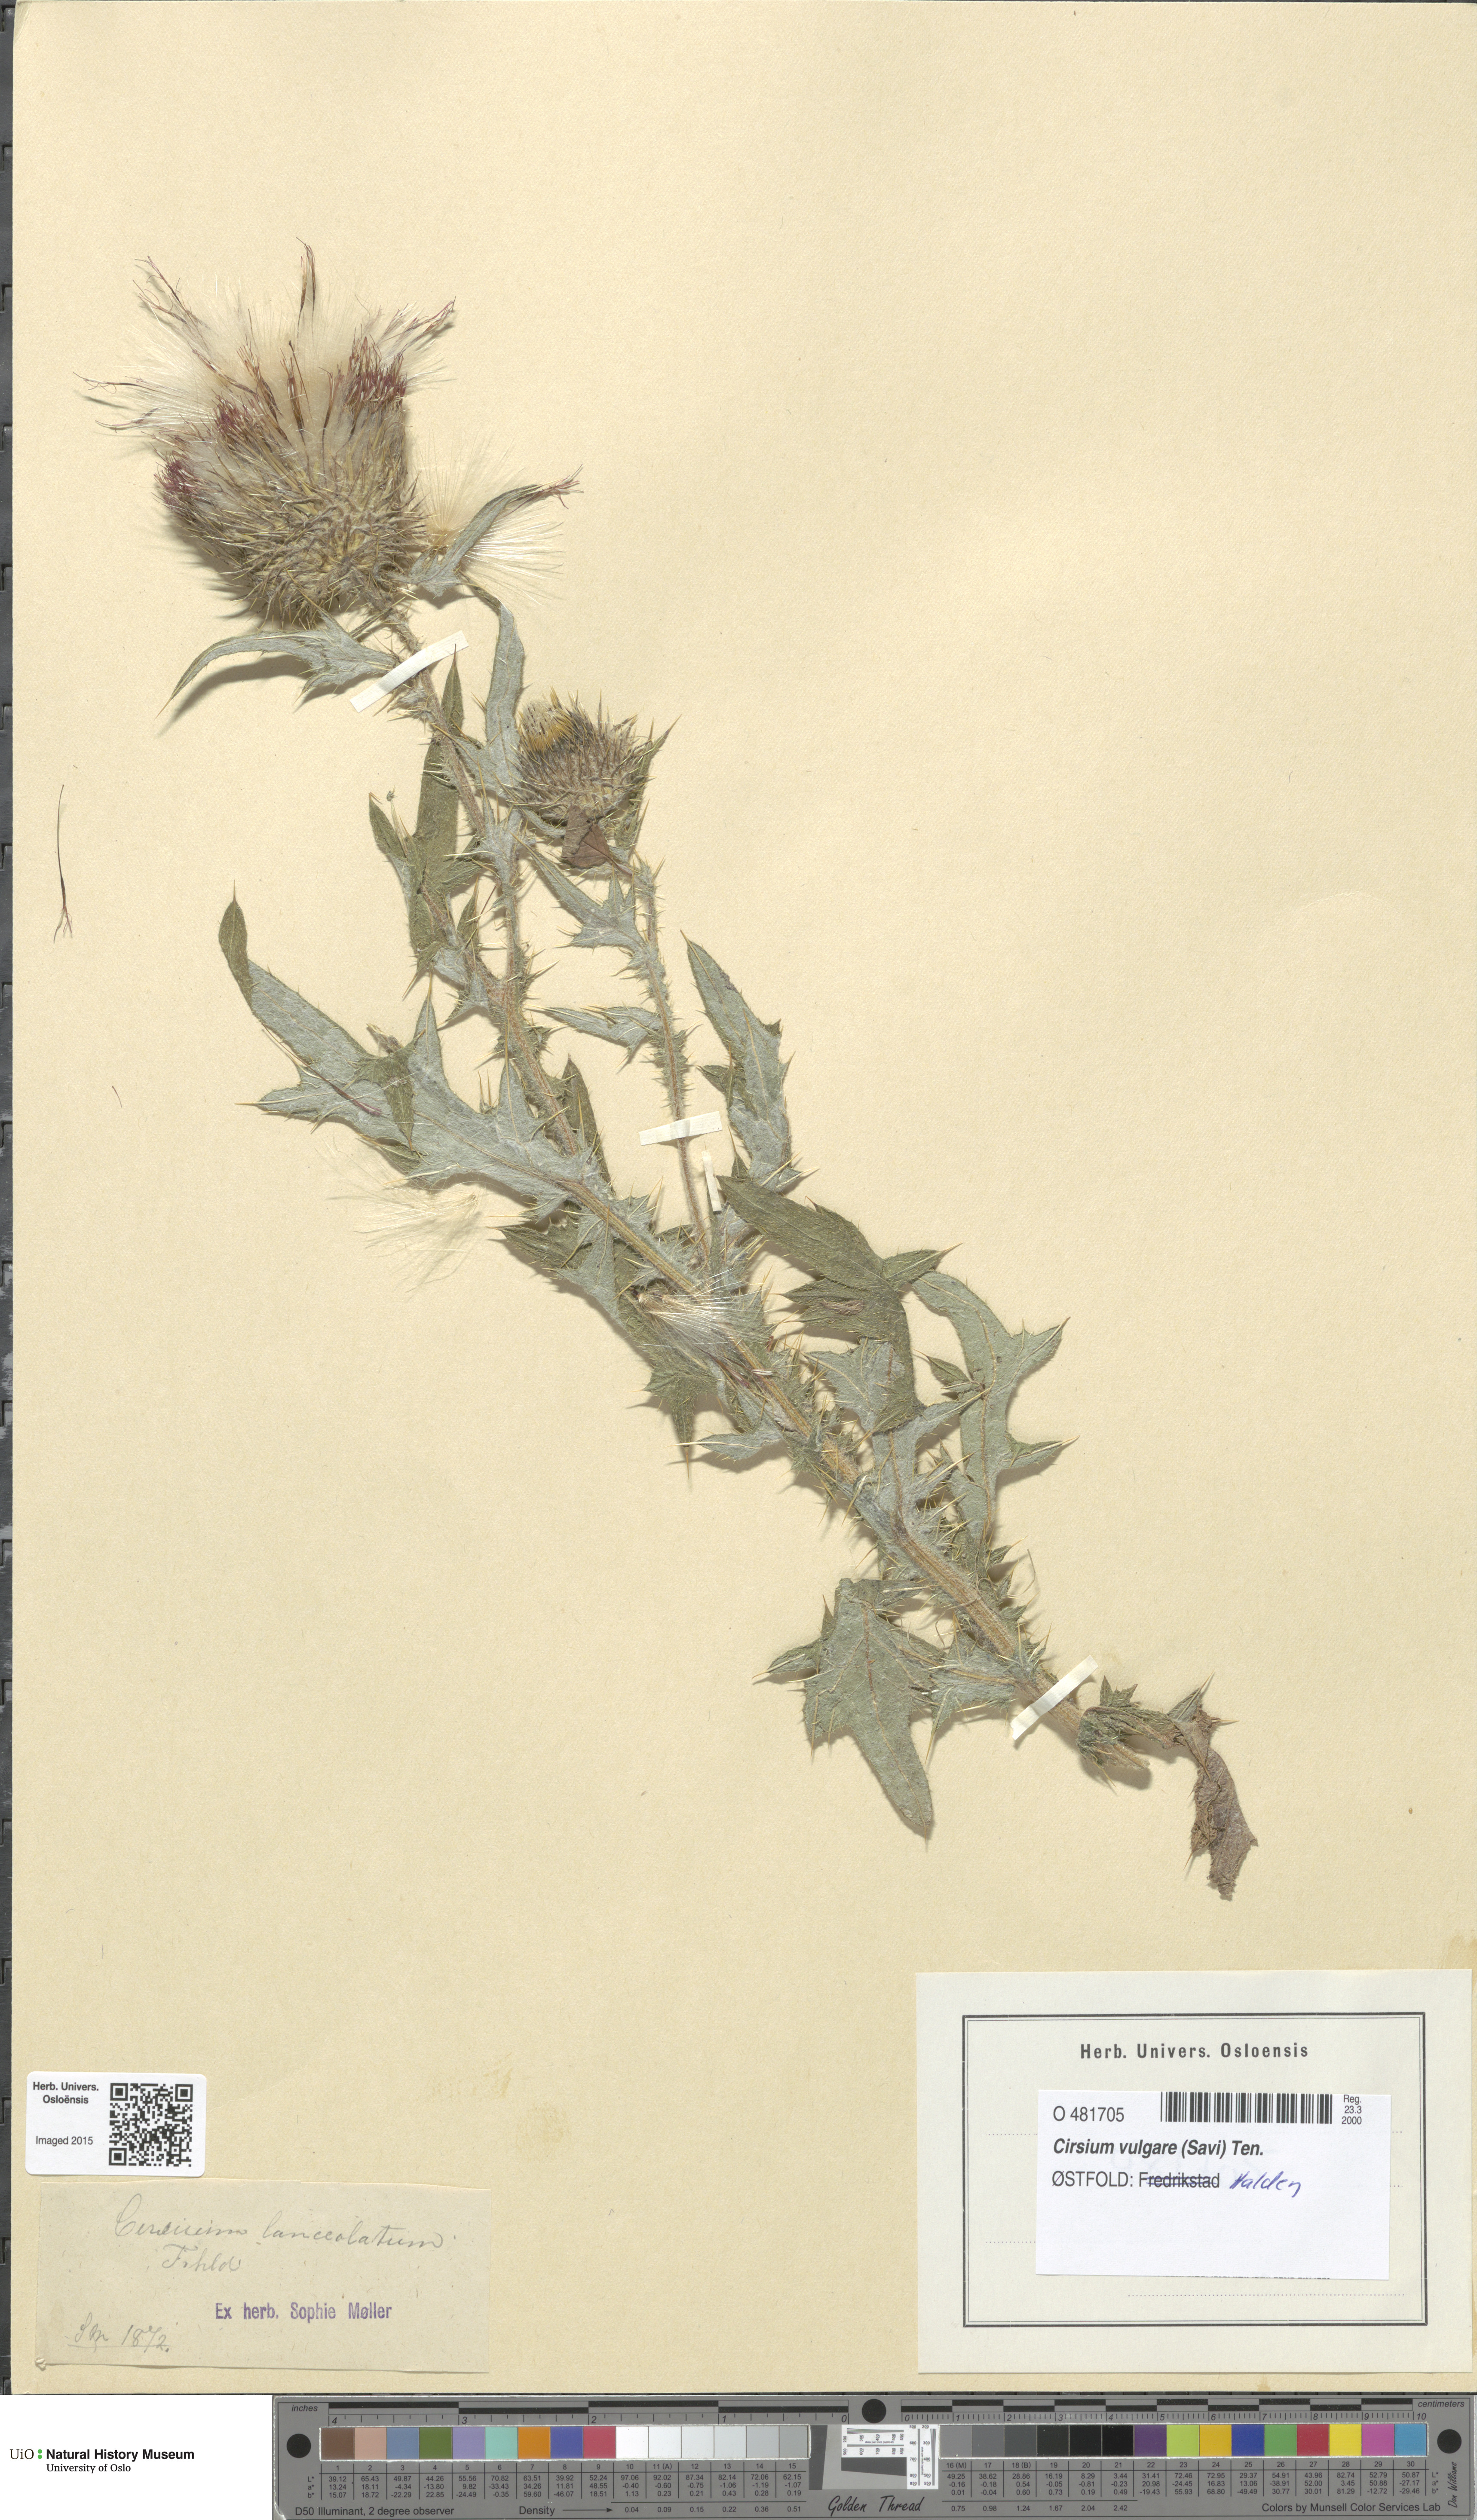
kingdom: Plantae
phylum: Tracheophyta
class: Magnoliopsida
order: Asterales
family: Asteraceae
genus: Cirsium
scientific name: Cirsium vulgare
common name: Bull thistle
